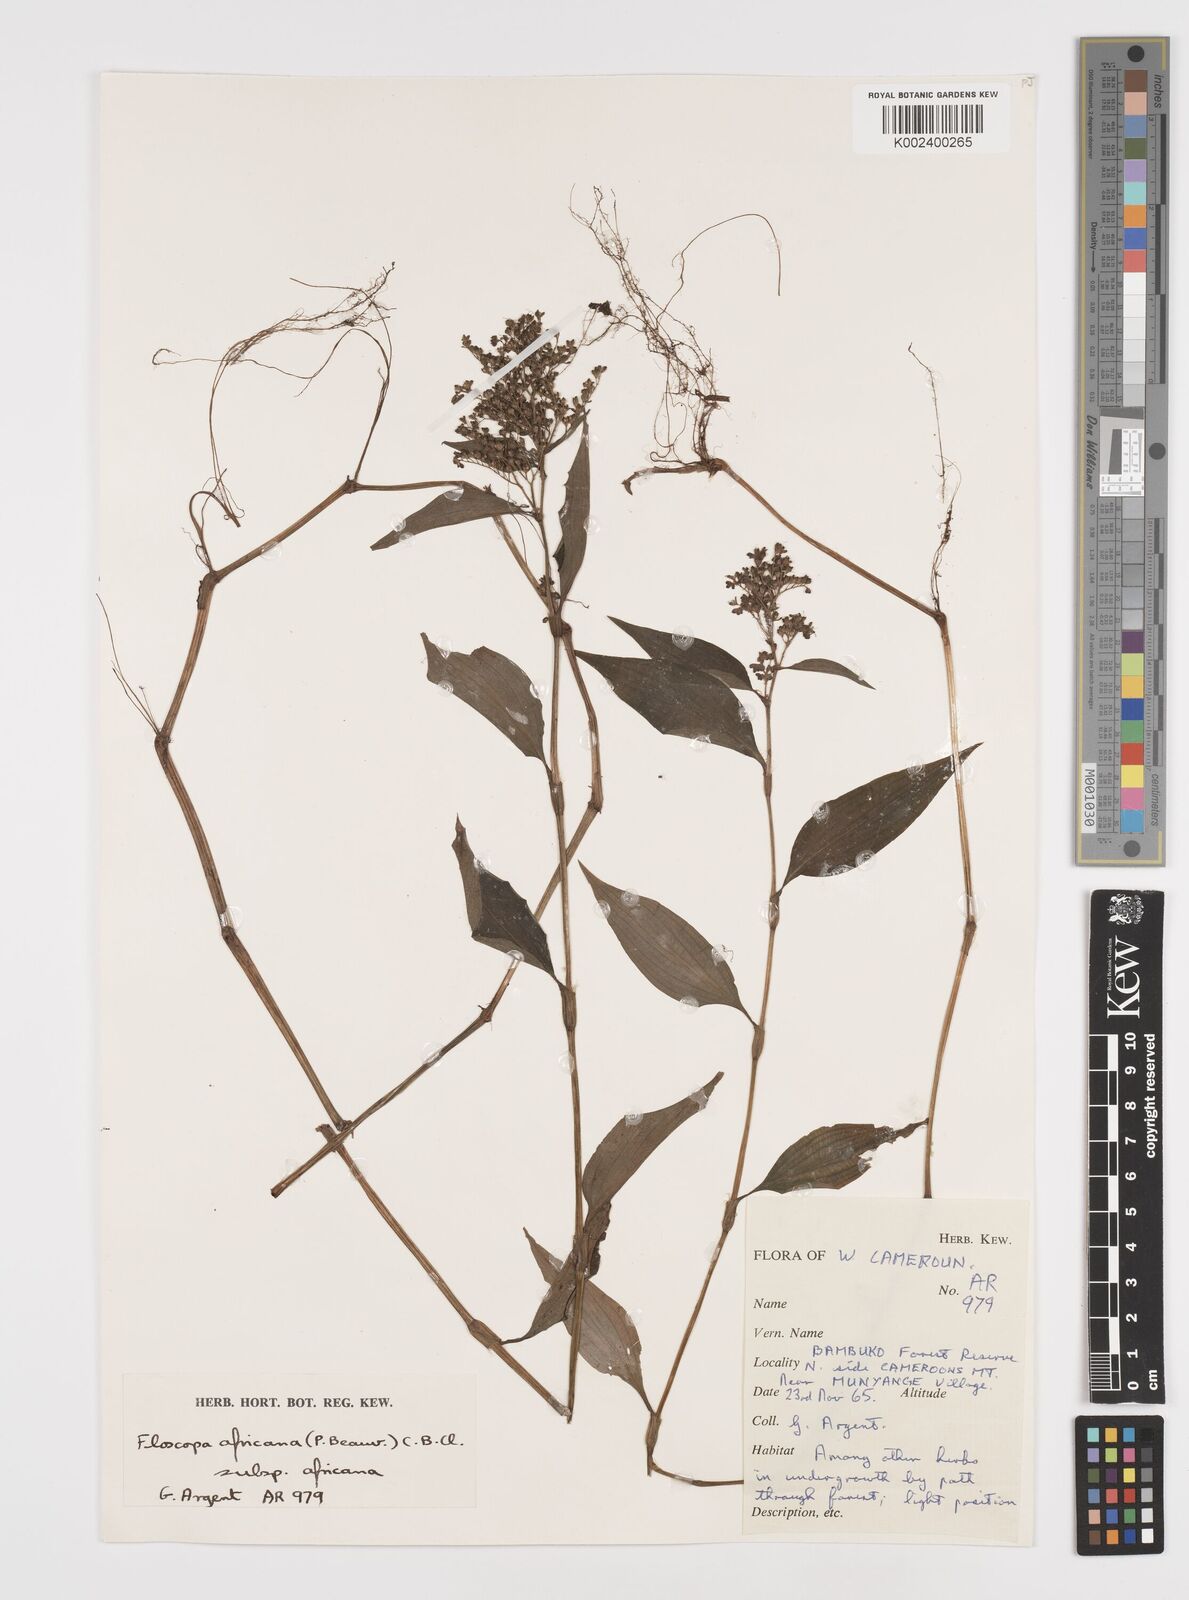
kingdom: Plantae
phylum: Tracheophyta
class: Liliopsida
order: Commelinales
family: Commelinaceae
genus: Floscopa
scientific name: Floscopa africana
